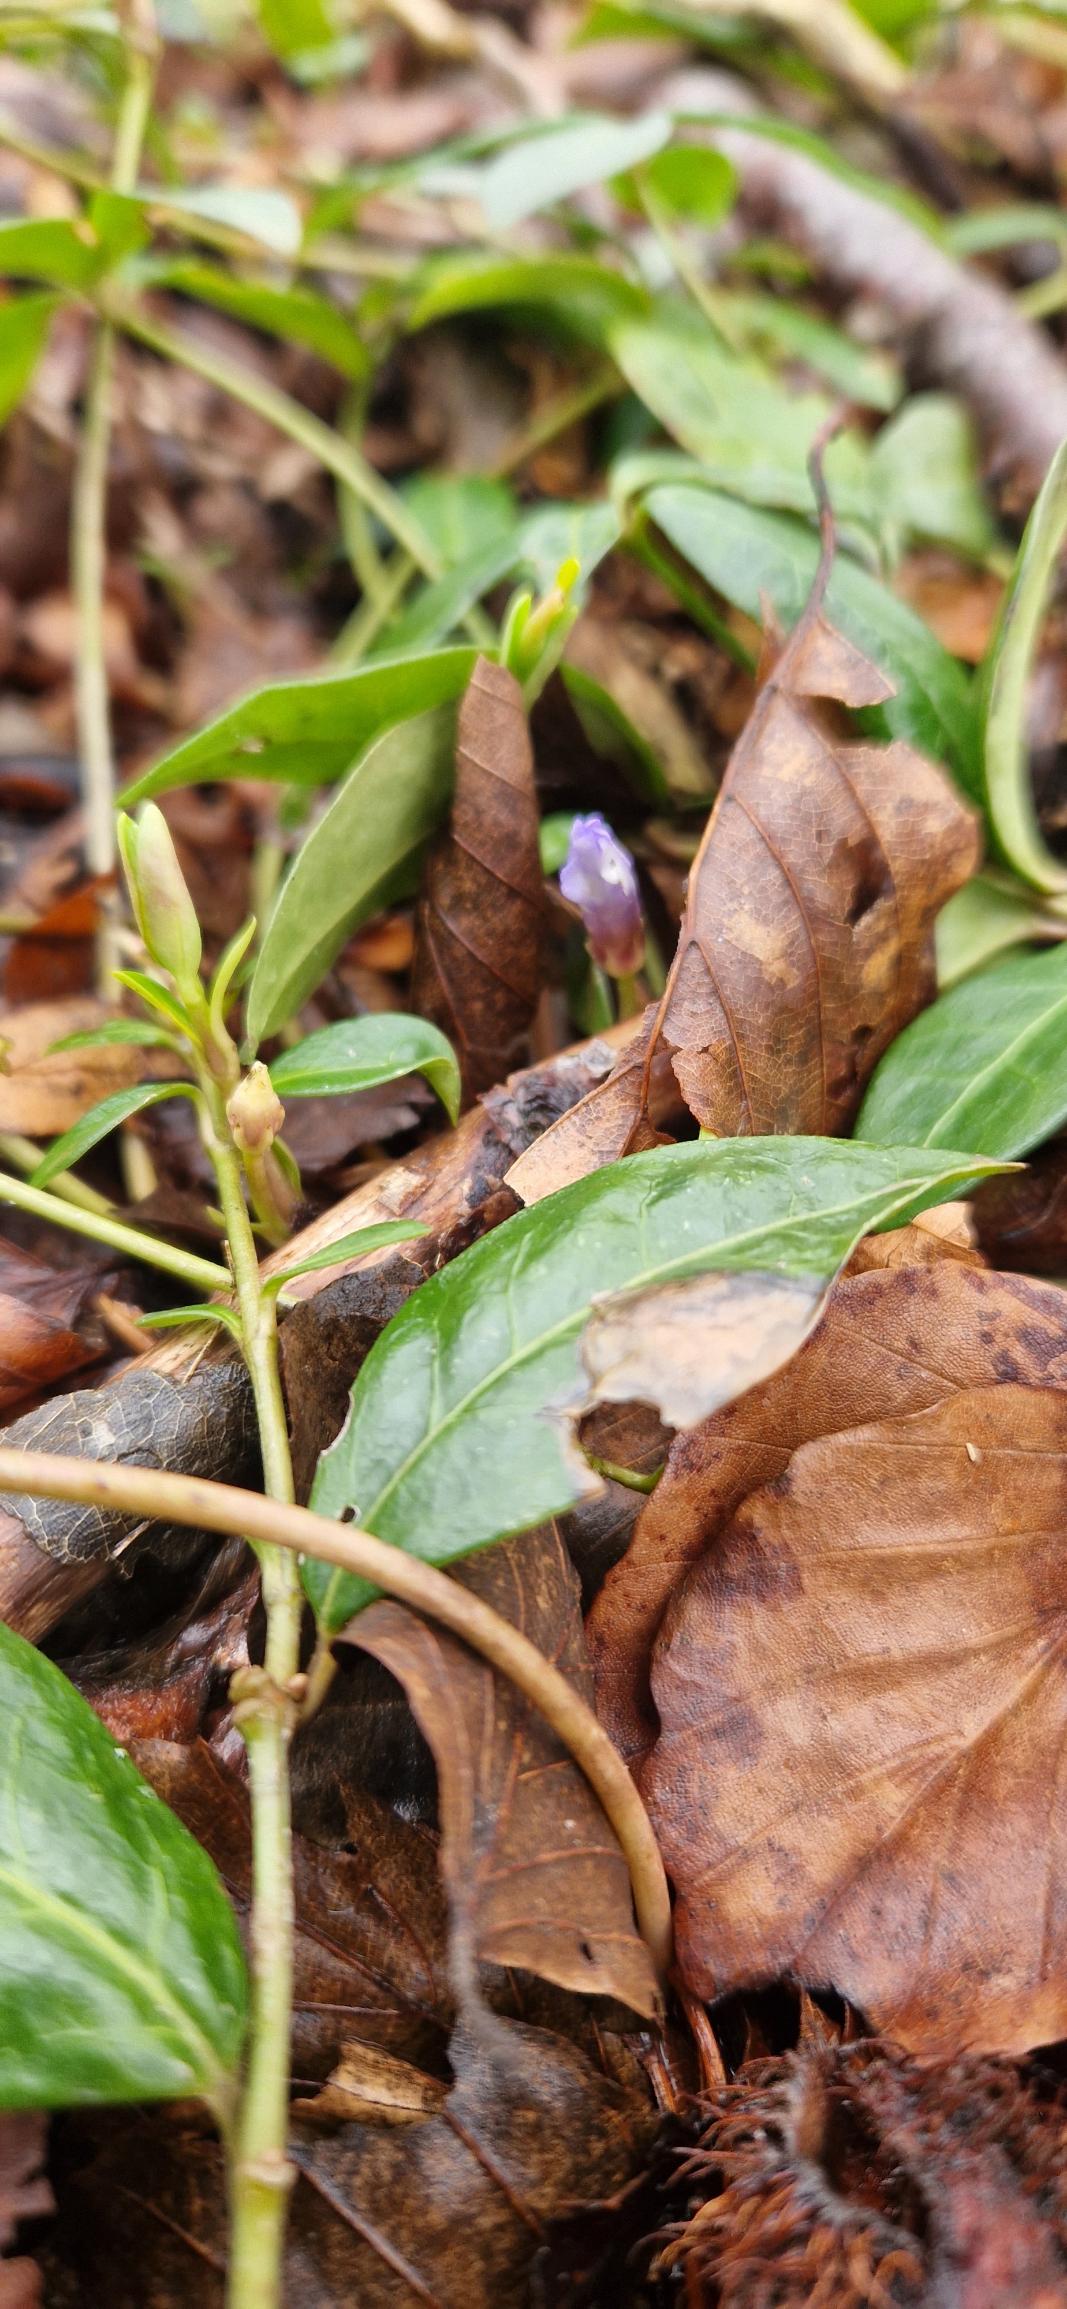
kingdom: Plantae
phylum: Tracheophyta
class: Magnoliopsida
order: Gentianales
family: Apocynaceae
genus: Vinca
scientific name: Vinca minor
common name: Liden singrøn
